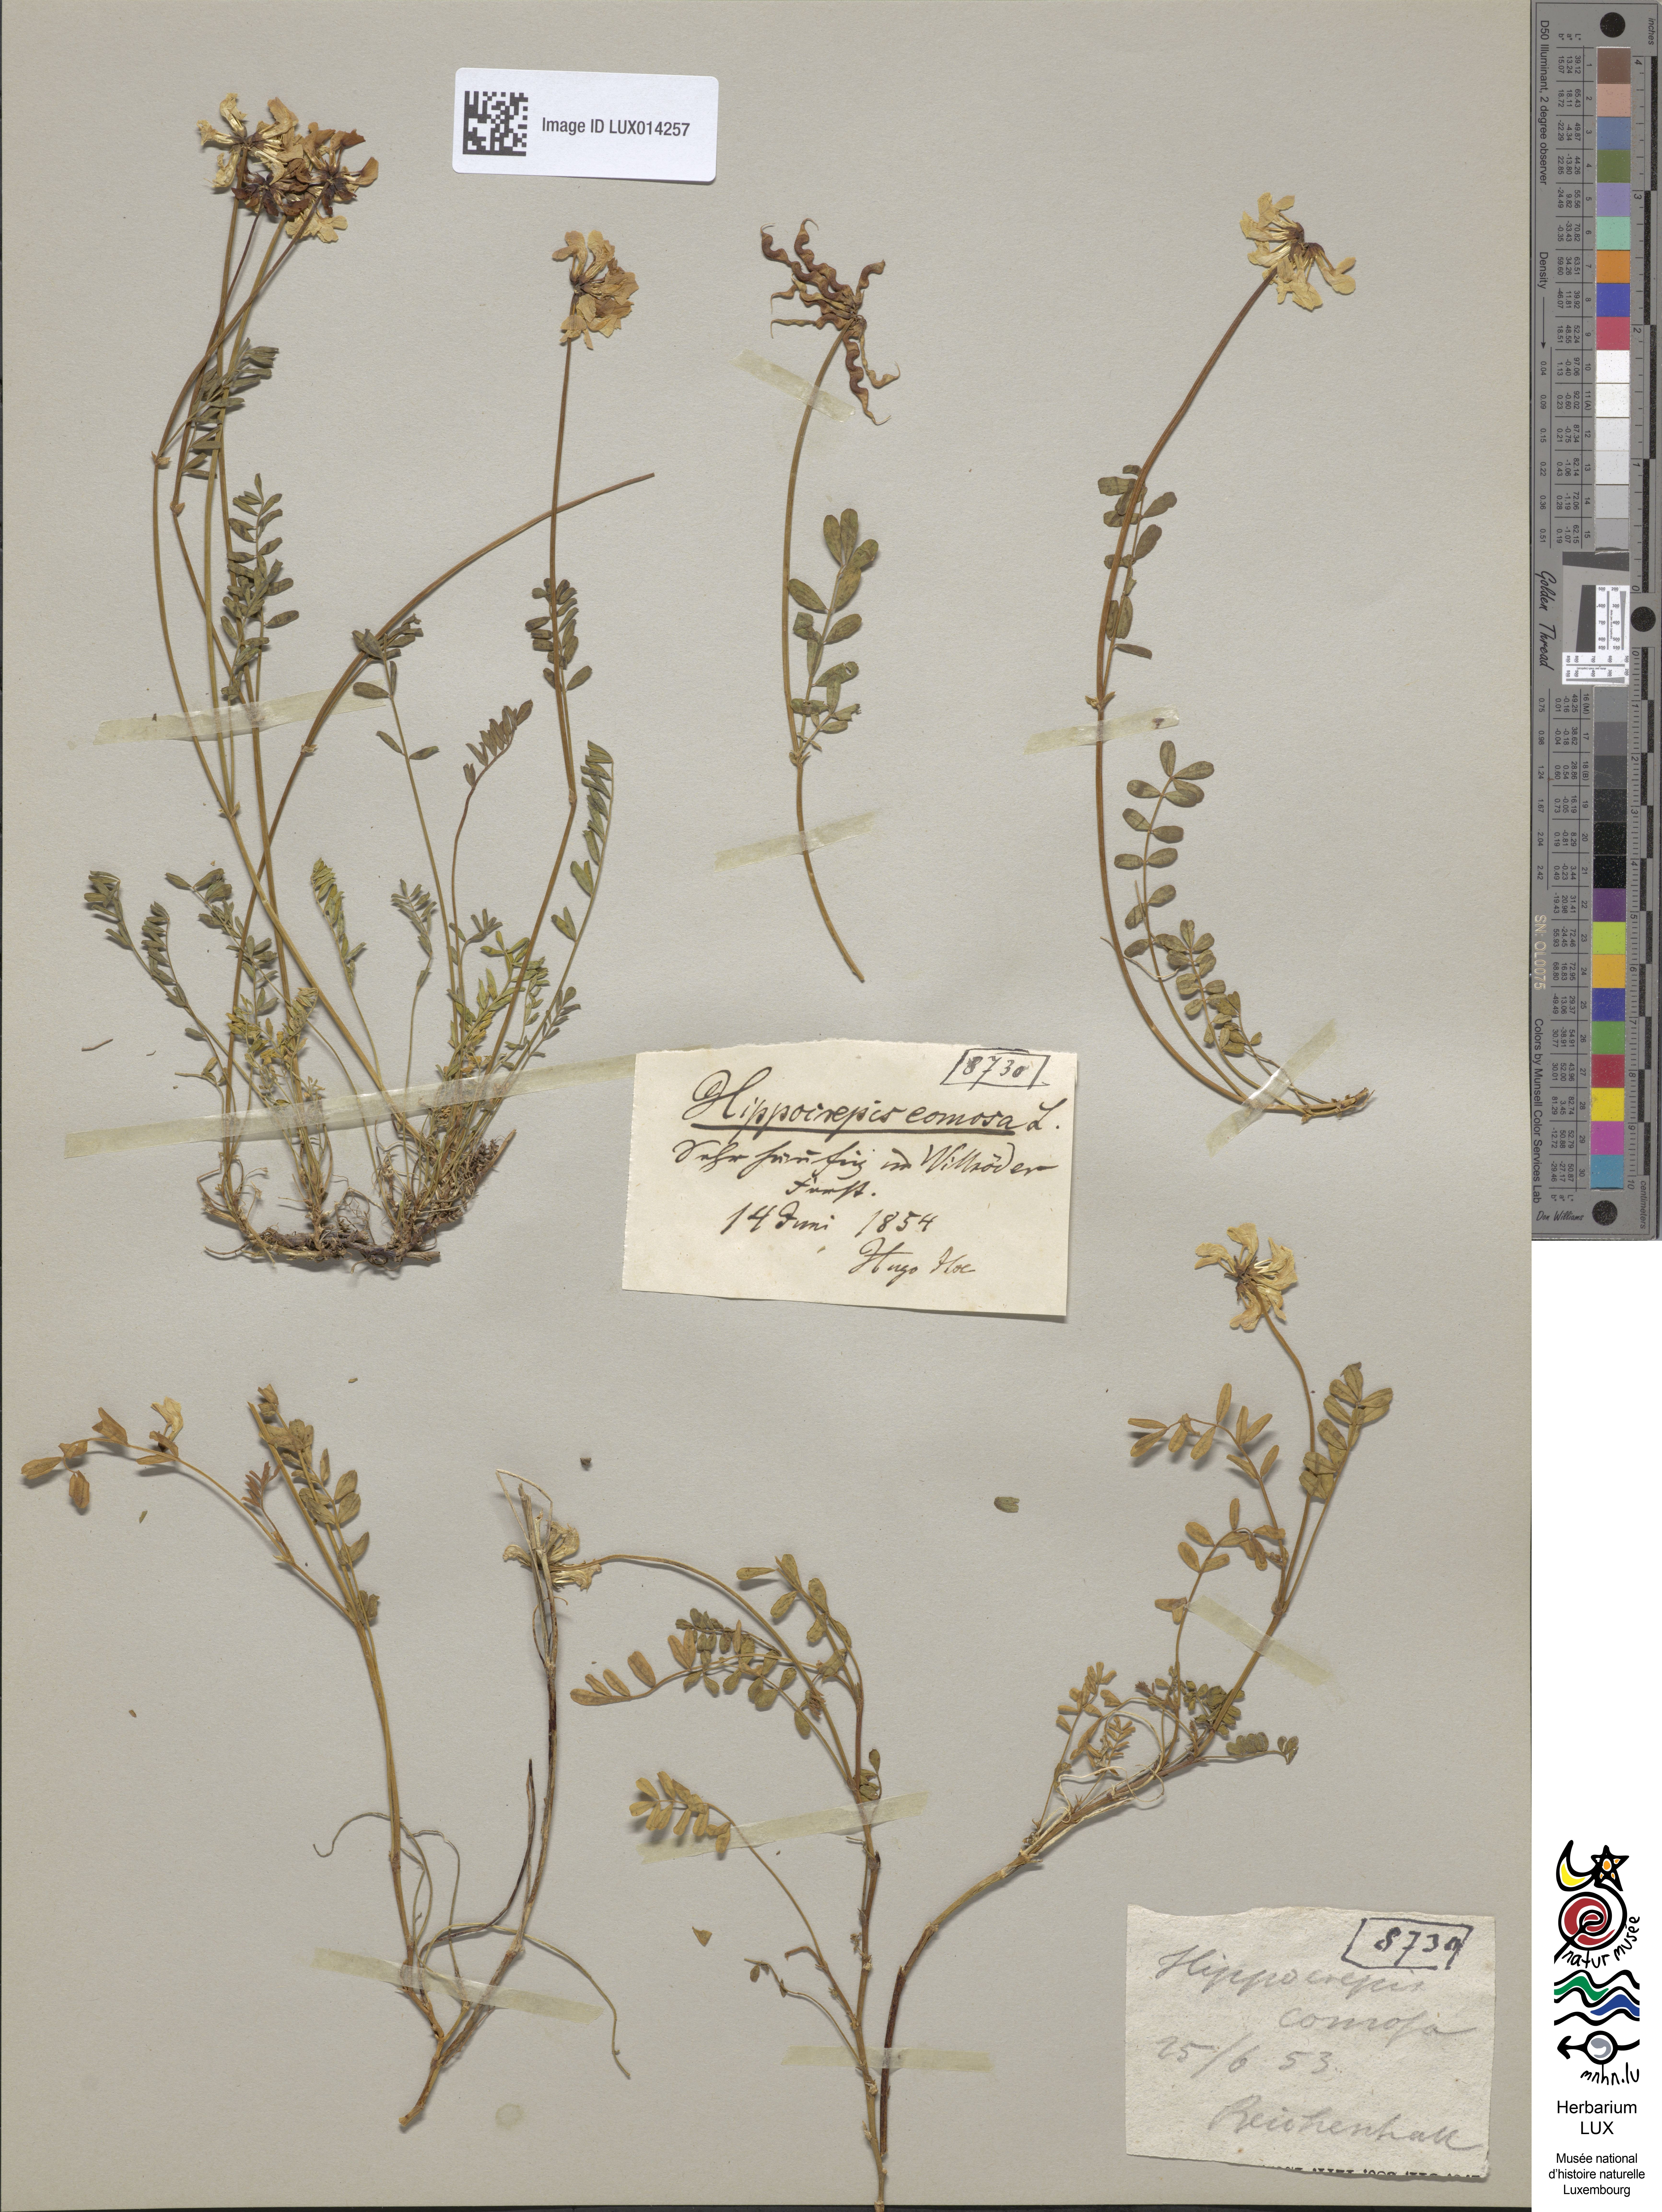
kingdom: Plantae
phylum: Tracheophyta
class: Magnoliopsida
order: Fabales
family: Fabaceae
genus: Hippocrepis
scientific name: Hippocrepis comosa
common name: Horseshoe vetch
